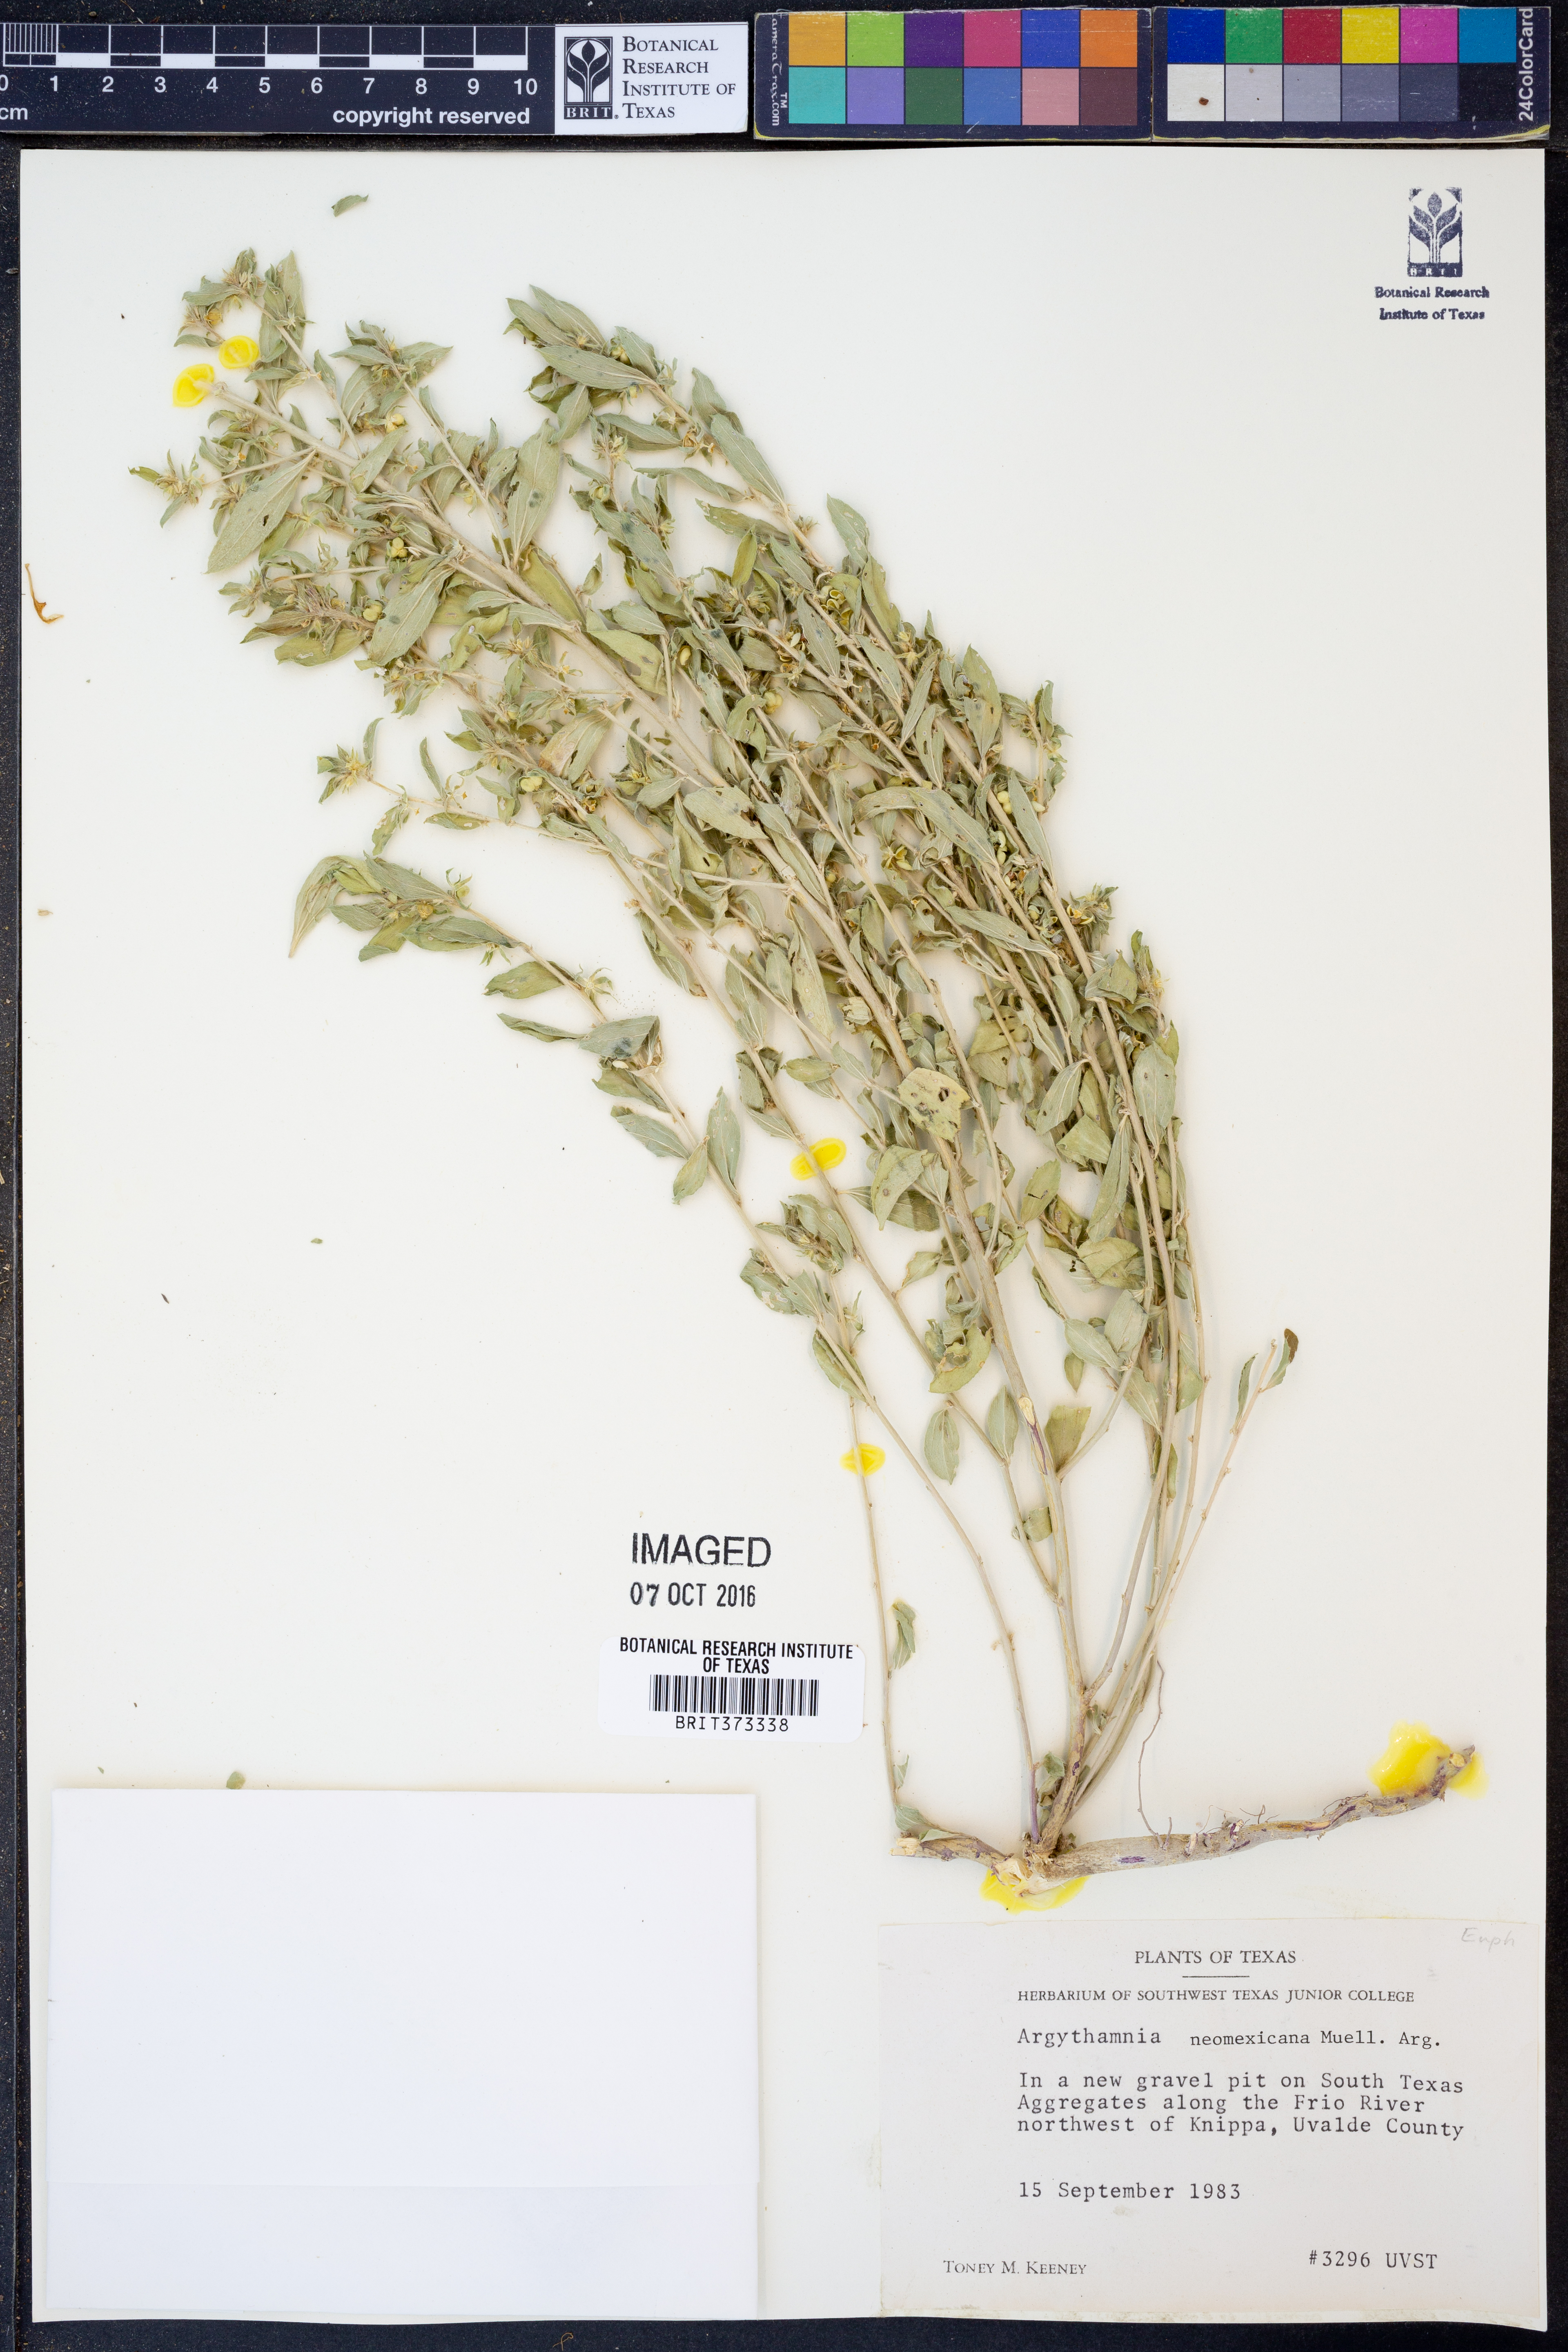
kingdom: Plantae
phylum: Tracheophyta
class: Magnoliopsida
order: Malpighiales
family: Euphorbiaceae
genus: Ditaxis
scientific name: Ditaxis serrata
